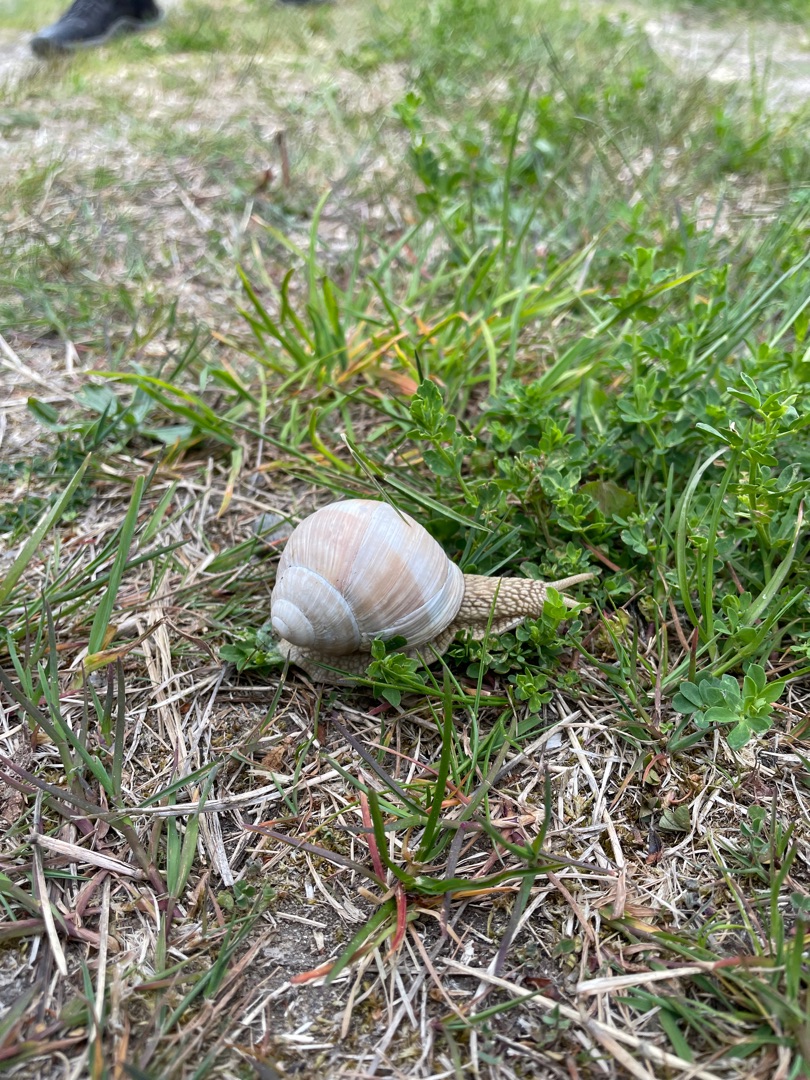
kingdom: Animalia
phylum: Mollusca
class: Gastropoda
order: Stylommatophora
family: Helicidae
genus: Helix
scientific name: Helix pomatia
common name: Vinbjergsnegl
